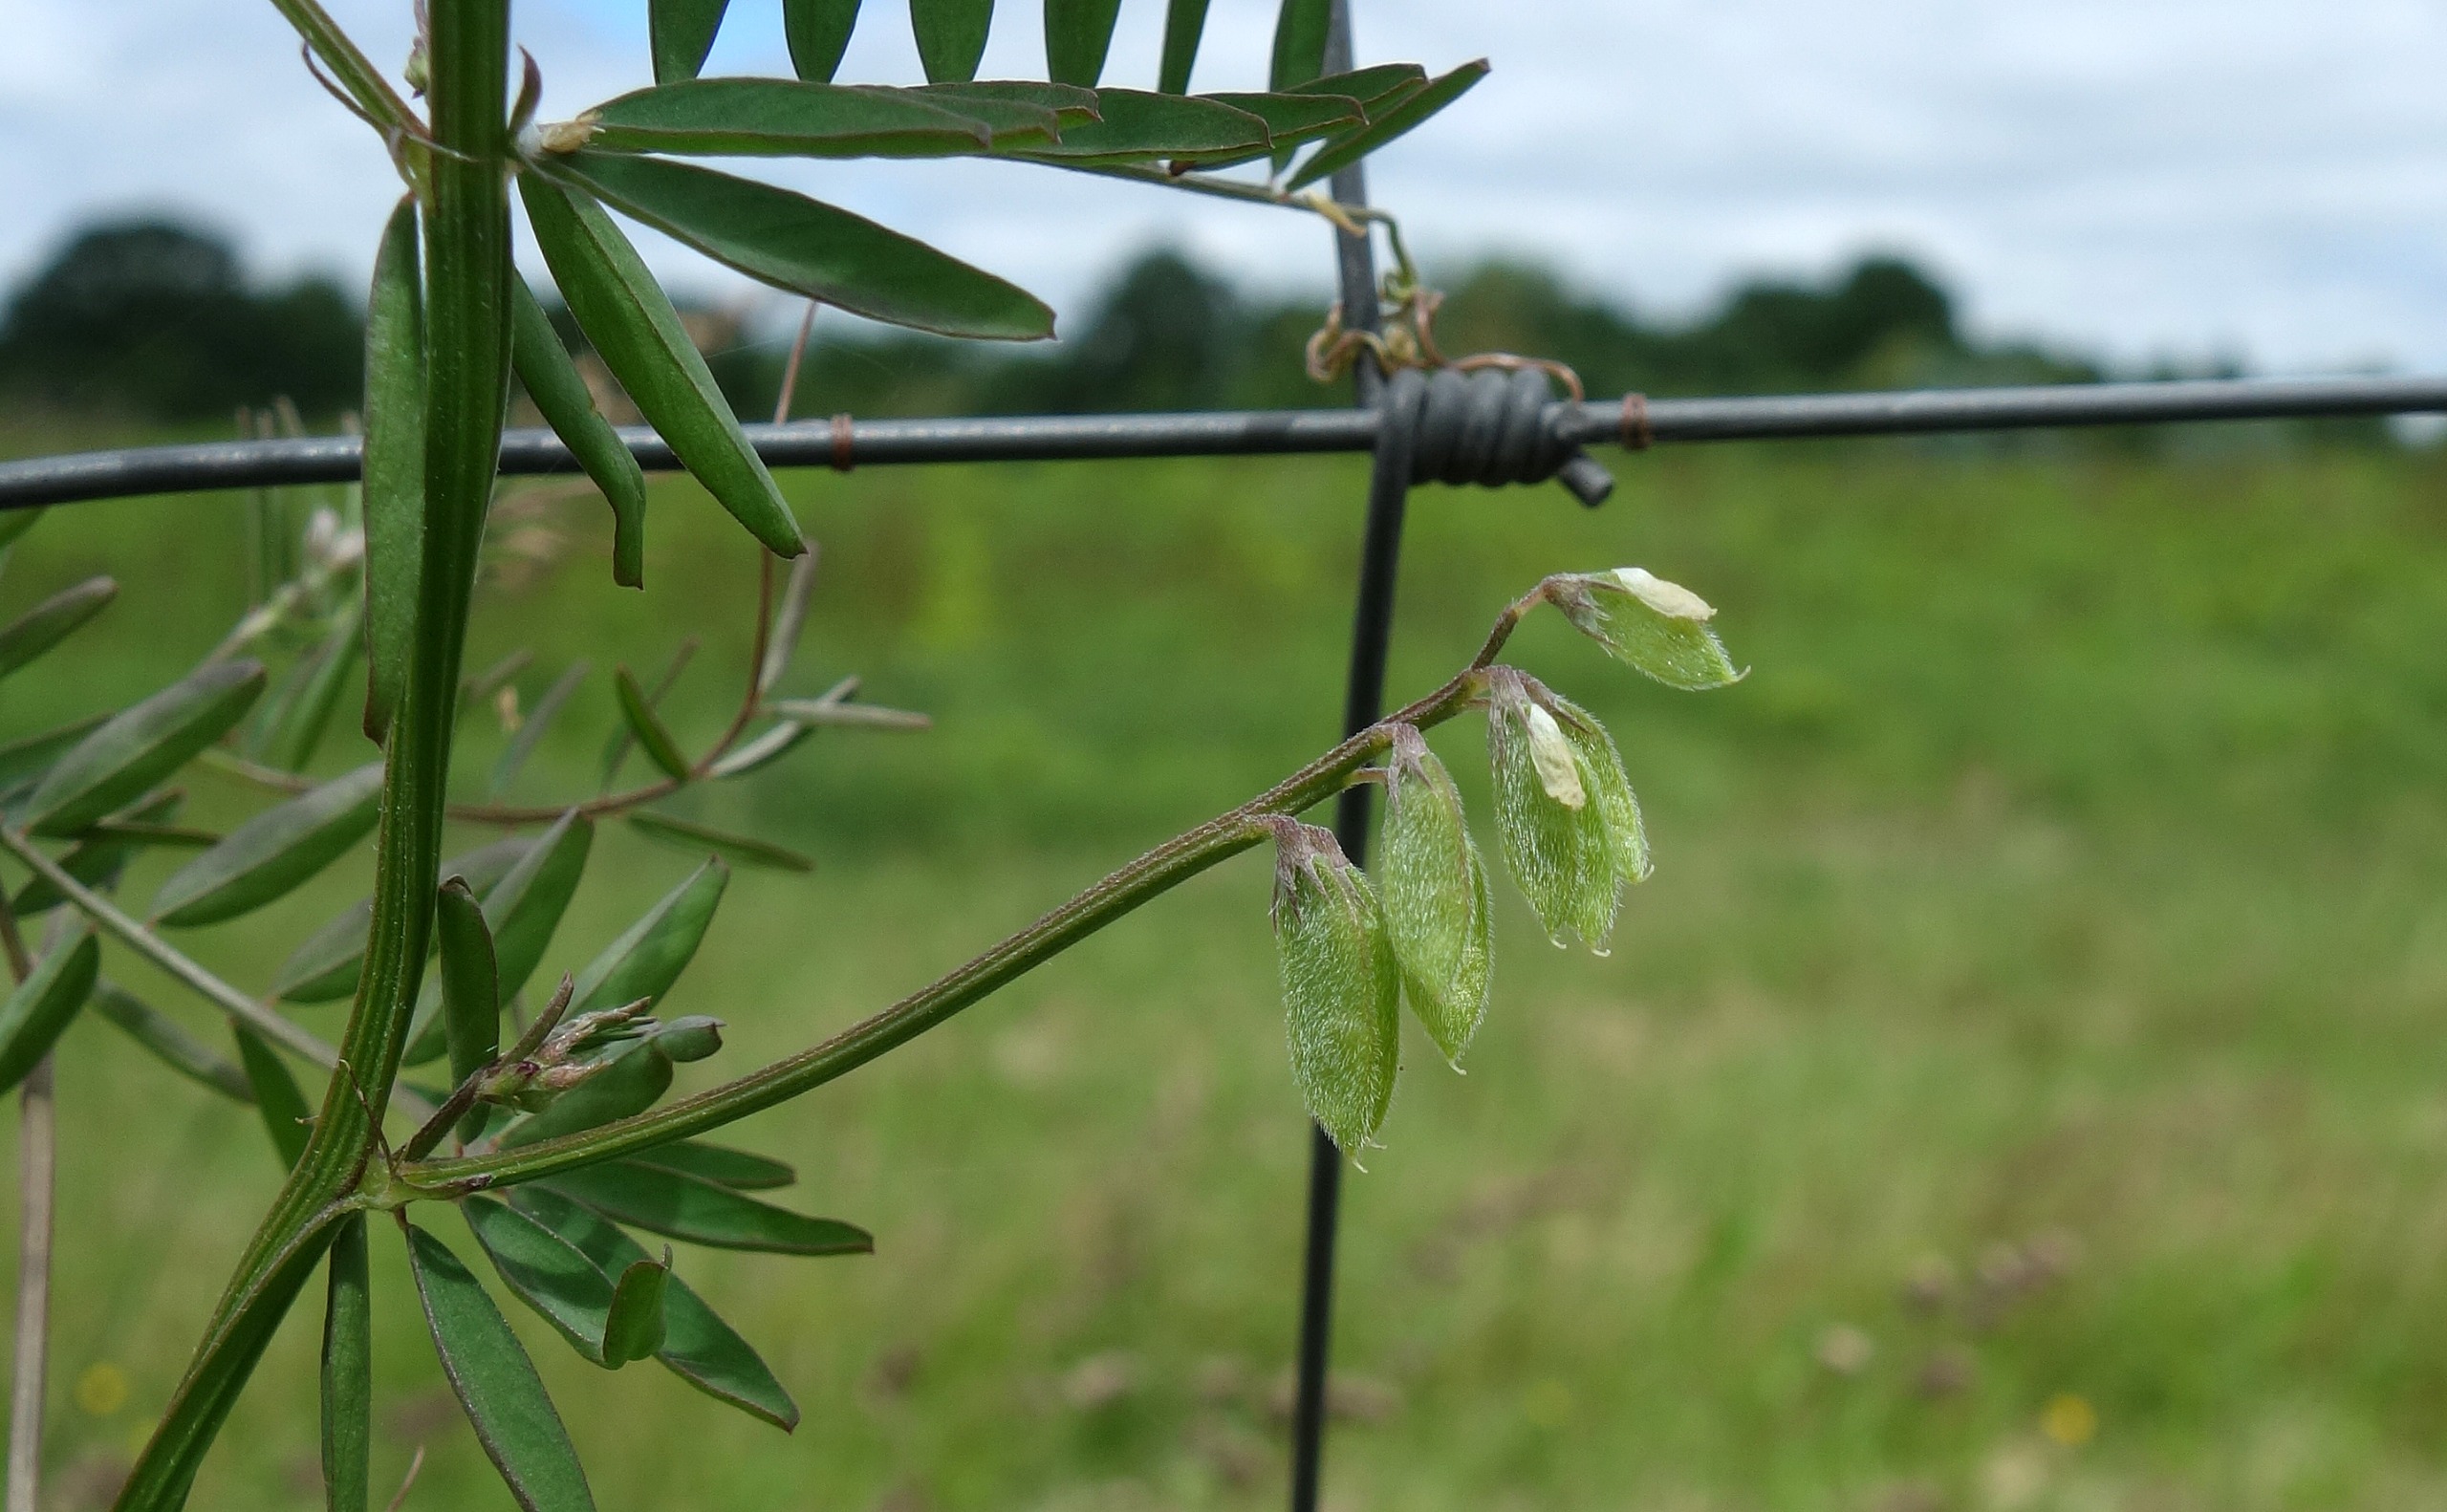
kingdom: Plantae
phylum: Tracheophyta
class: Magnoliopsida
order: Fabales
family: Fabaceae
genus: Vicia
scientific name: Vicia hirsuta
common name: Tofrøet vikke
